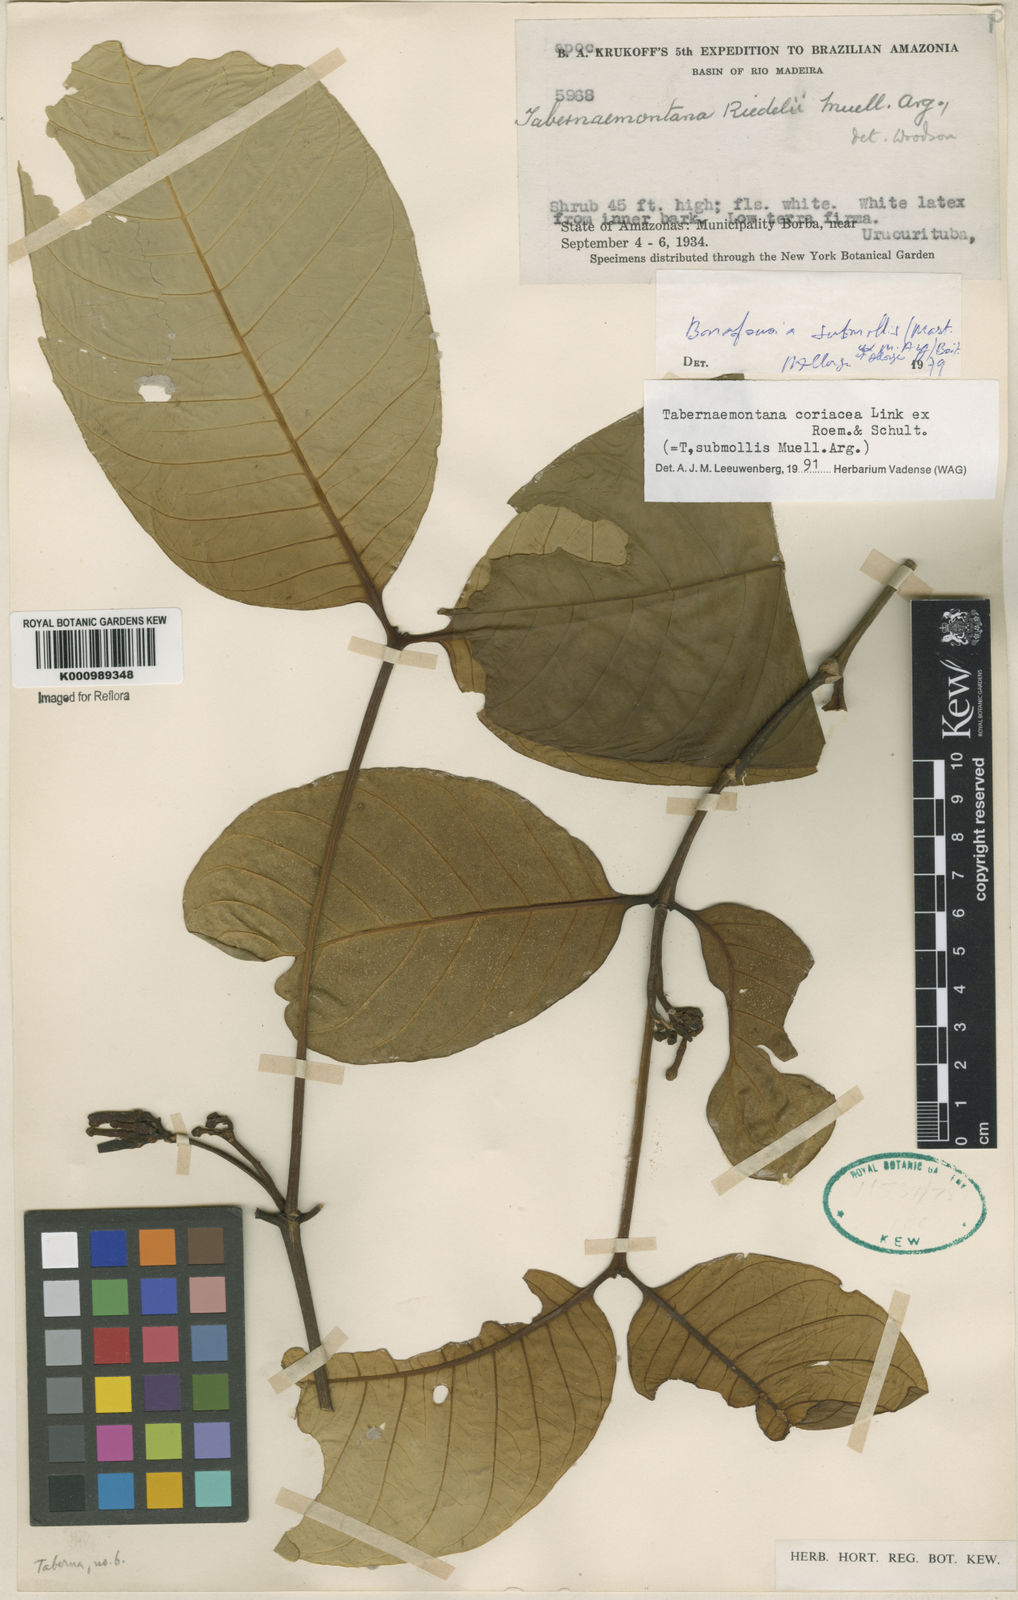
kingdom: Plantae
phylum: Tracheophyta
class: Magnoliopsida
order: Gentianales
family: Apocynaceae
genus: Tabernaemontana
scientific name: Tabernaemontana coriacea
